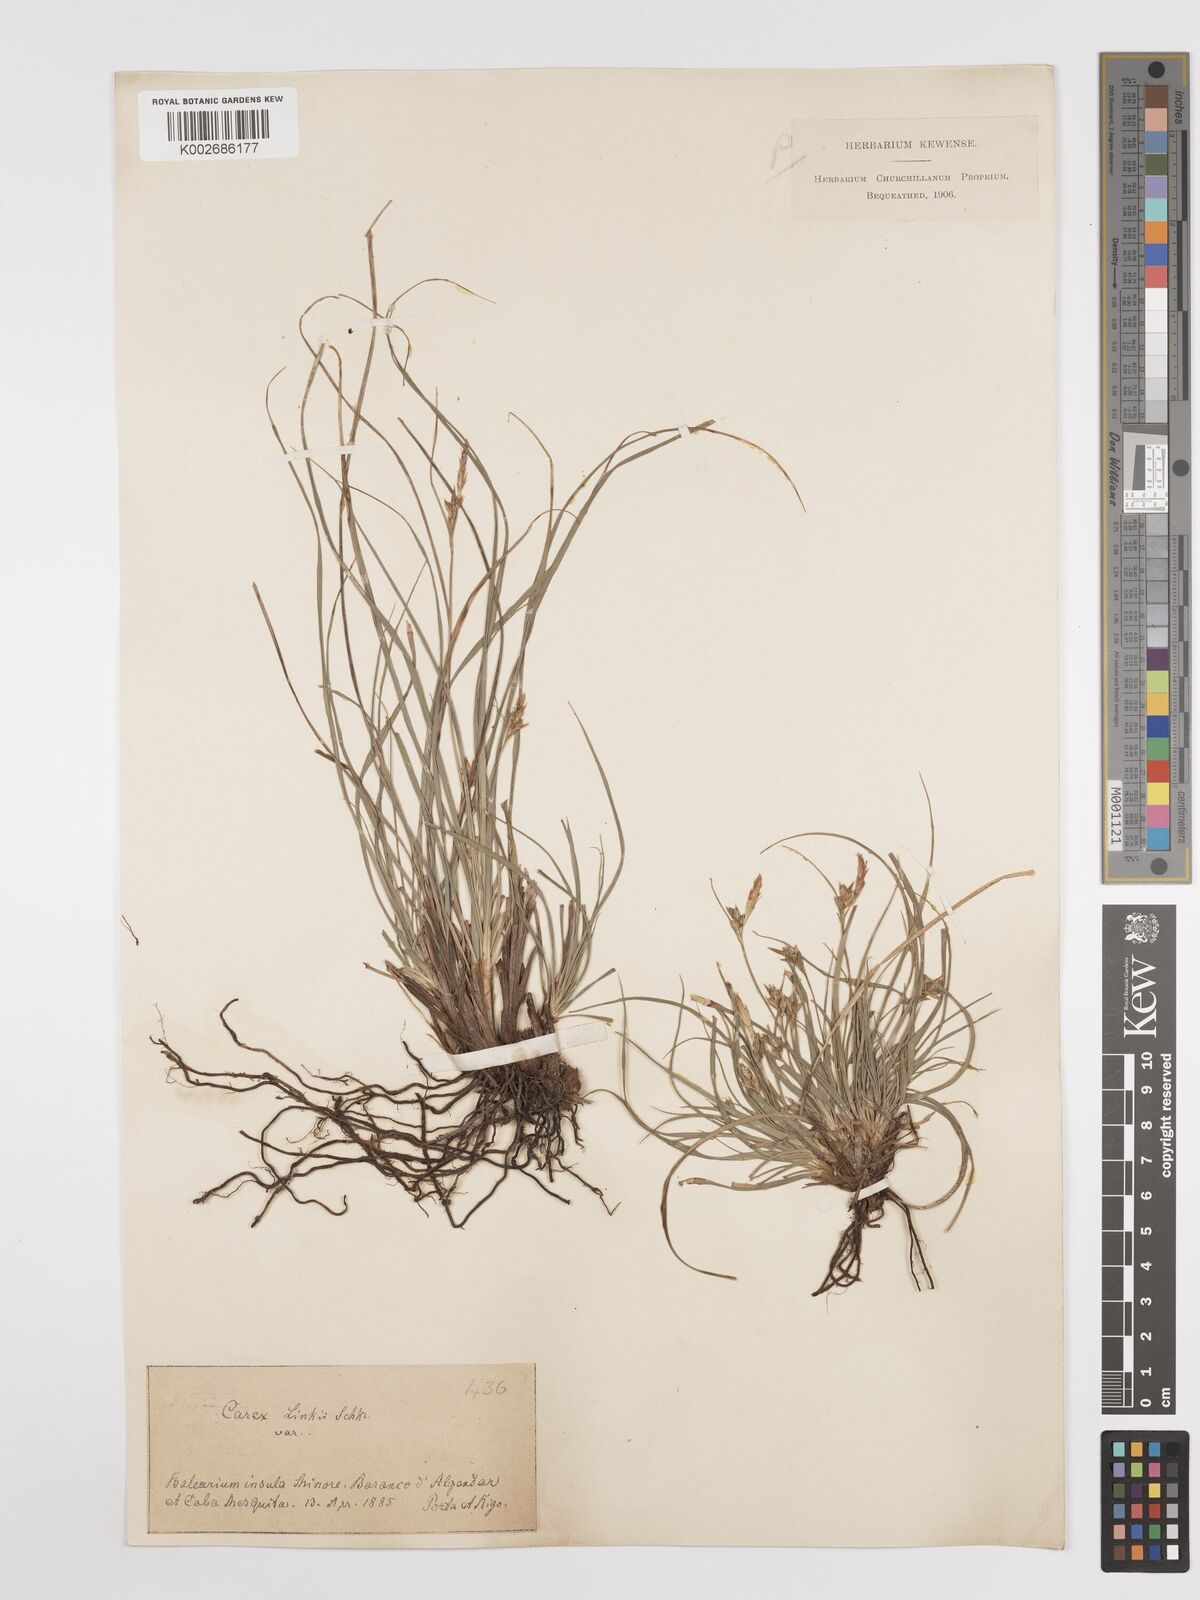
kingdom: Plantae
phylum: Tracheophyta
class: Liliopsida
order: Poales
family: Cyperaceae
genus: Carex
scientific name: Carex distachya
